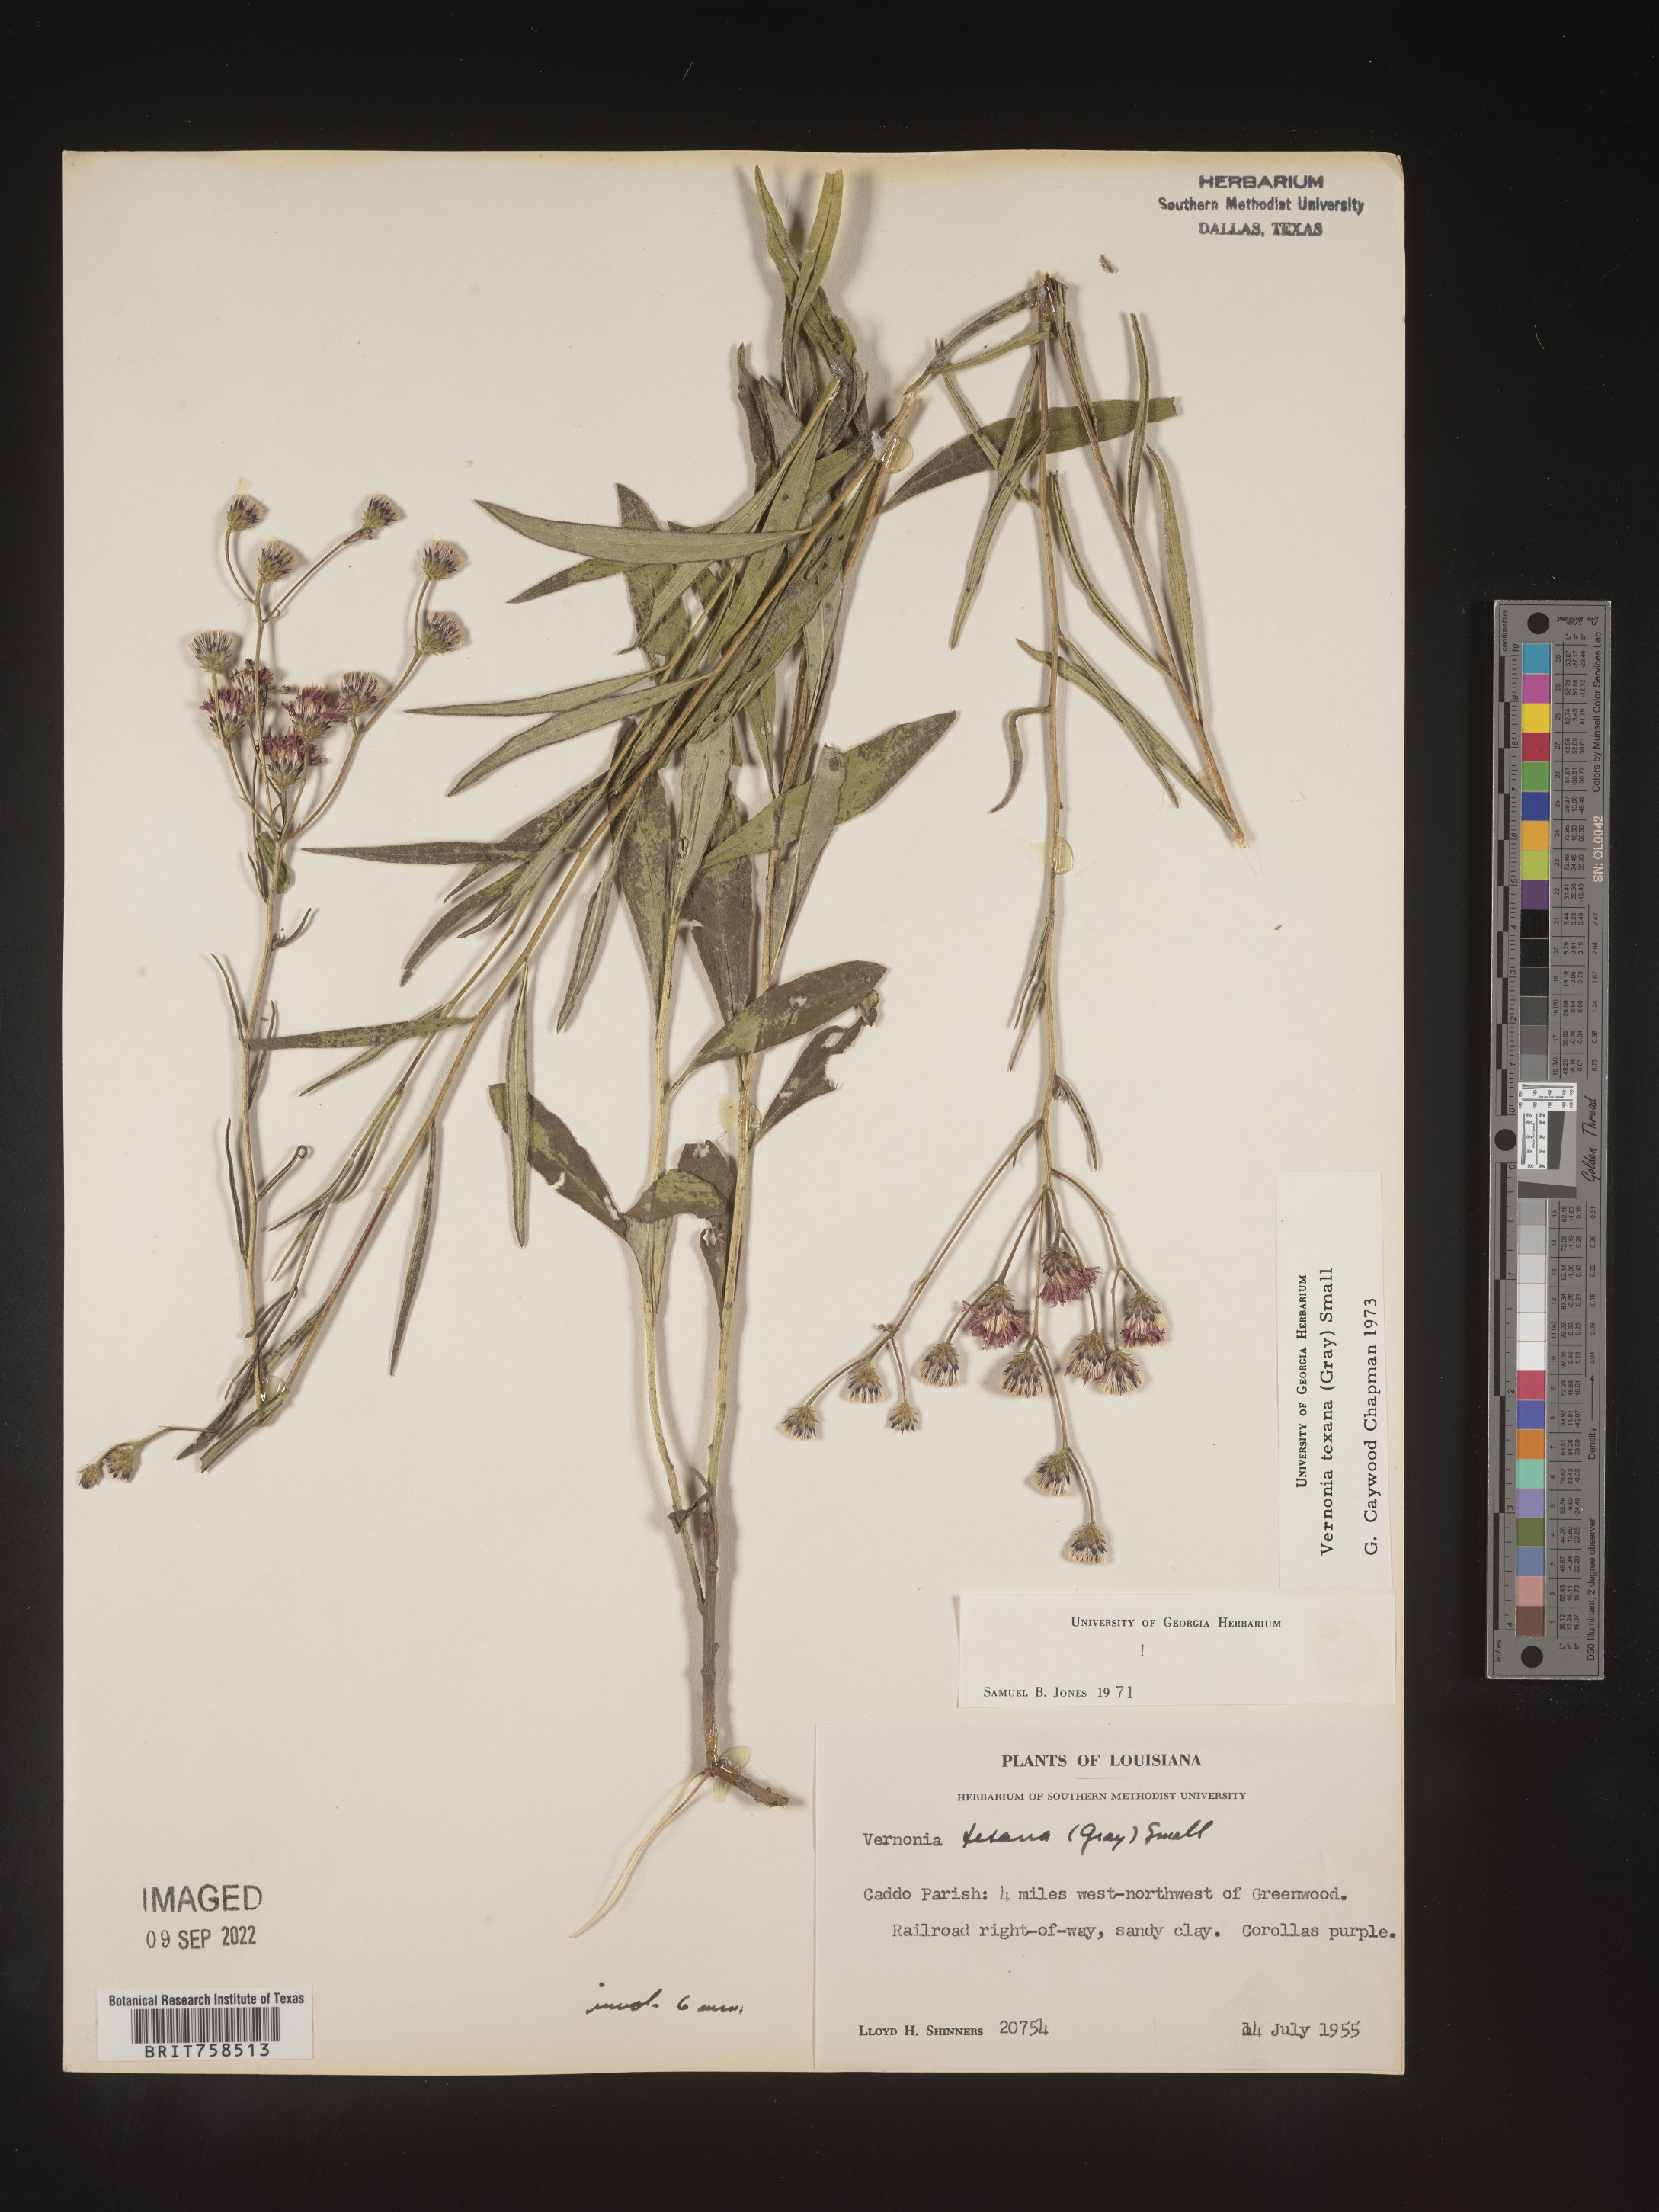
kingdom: Plantae
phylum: Tracheophyta
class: Magnoliopsida
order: Asterales
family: Asteraceae
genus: Vernonia
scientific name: Vernonia texana
